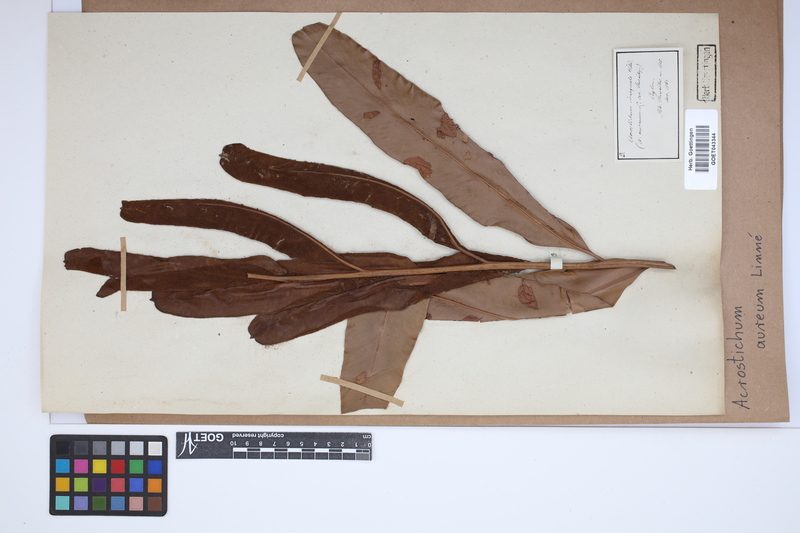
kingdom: Plantae
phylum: Tracheophyta
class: Polypodiopsida
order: Polypodiales
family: Pteridaceae
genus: Acrostichum
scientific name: Acrostichum aureum
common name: Leather fern
